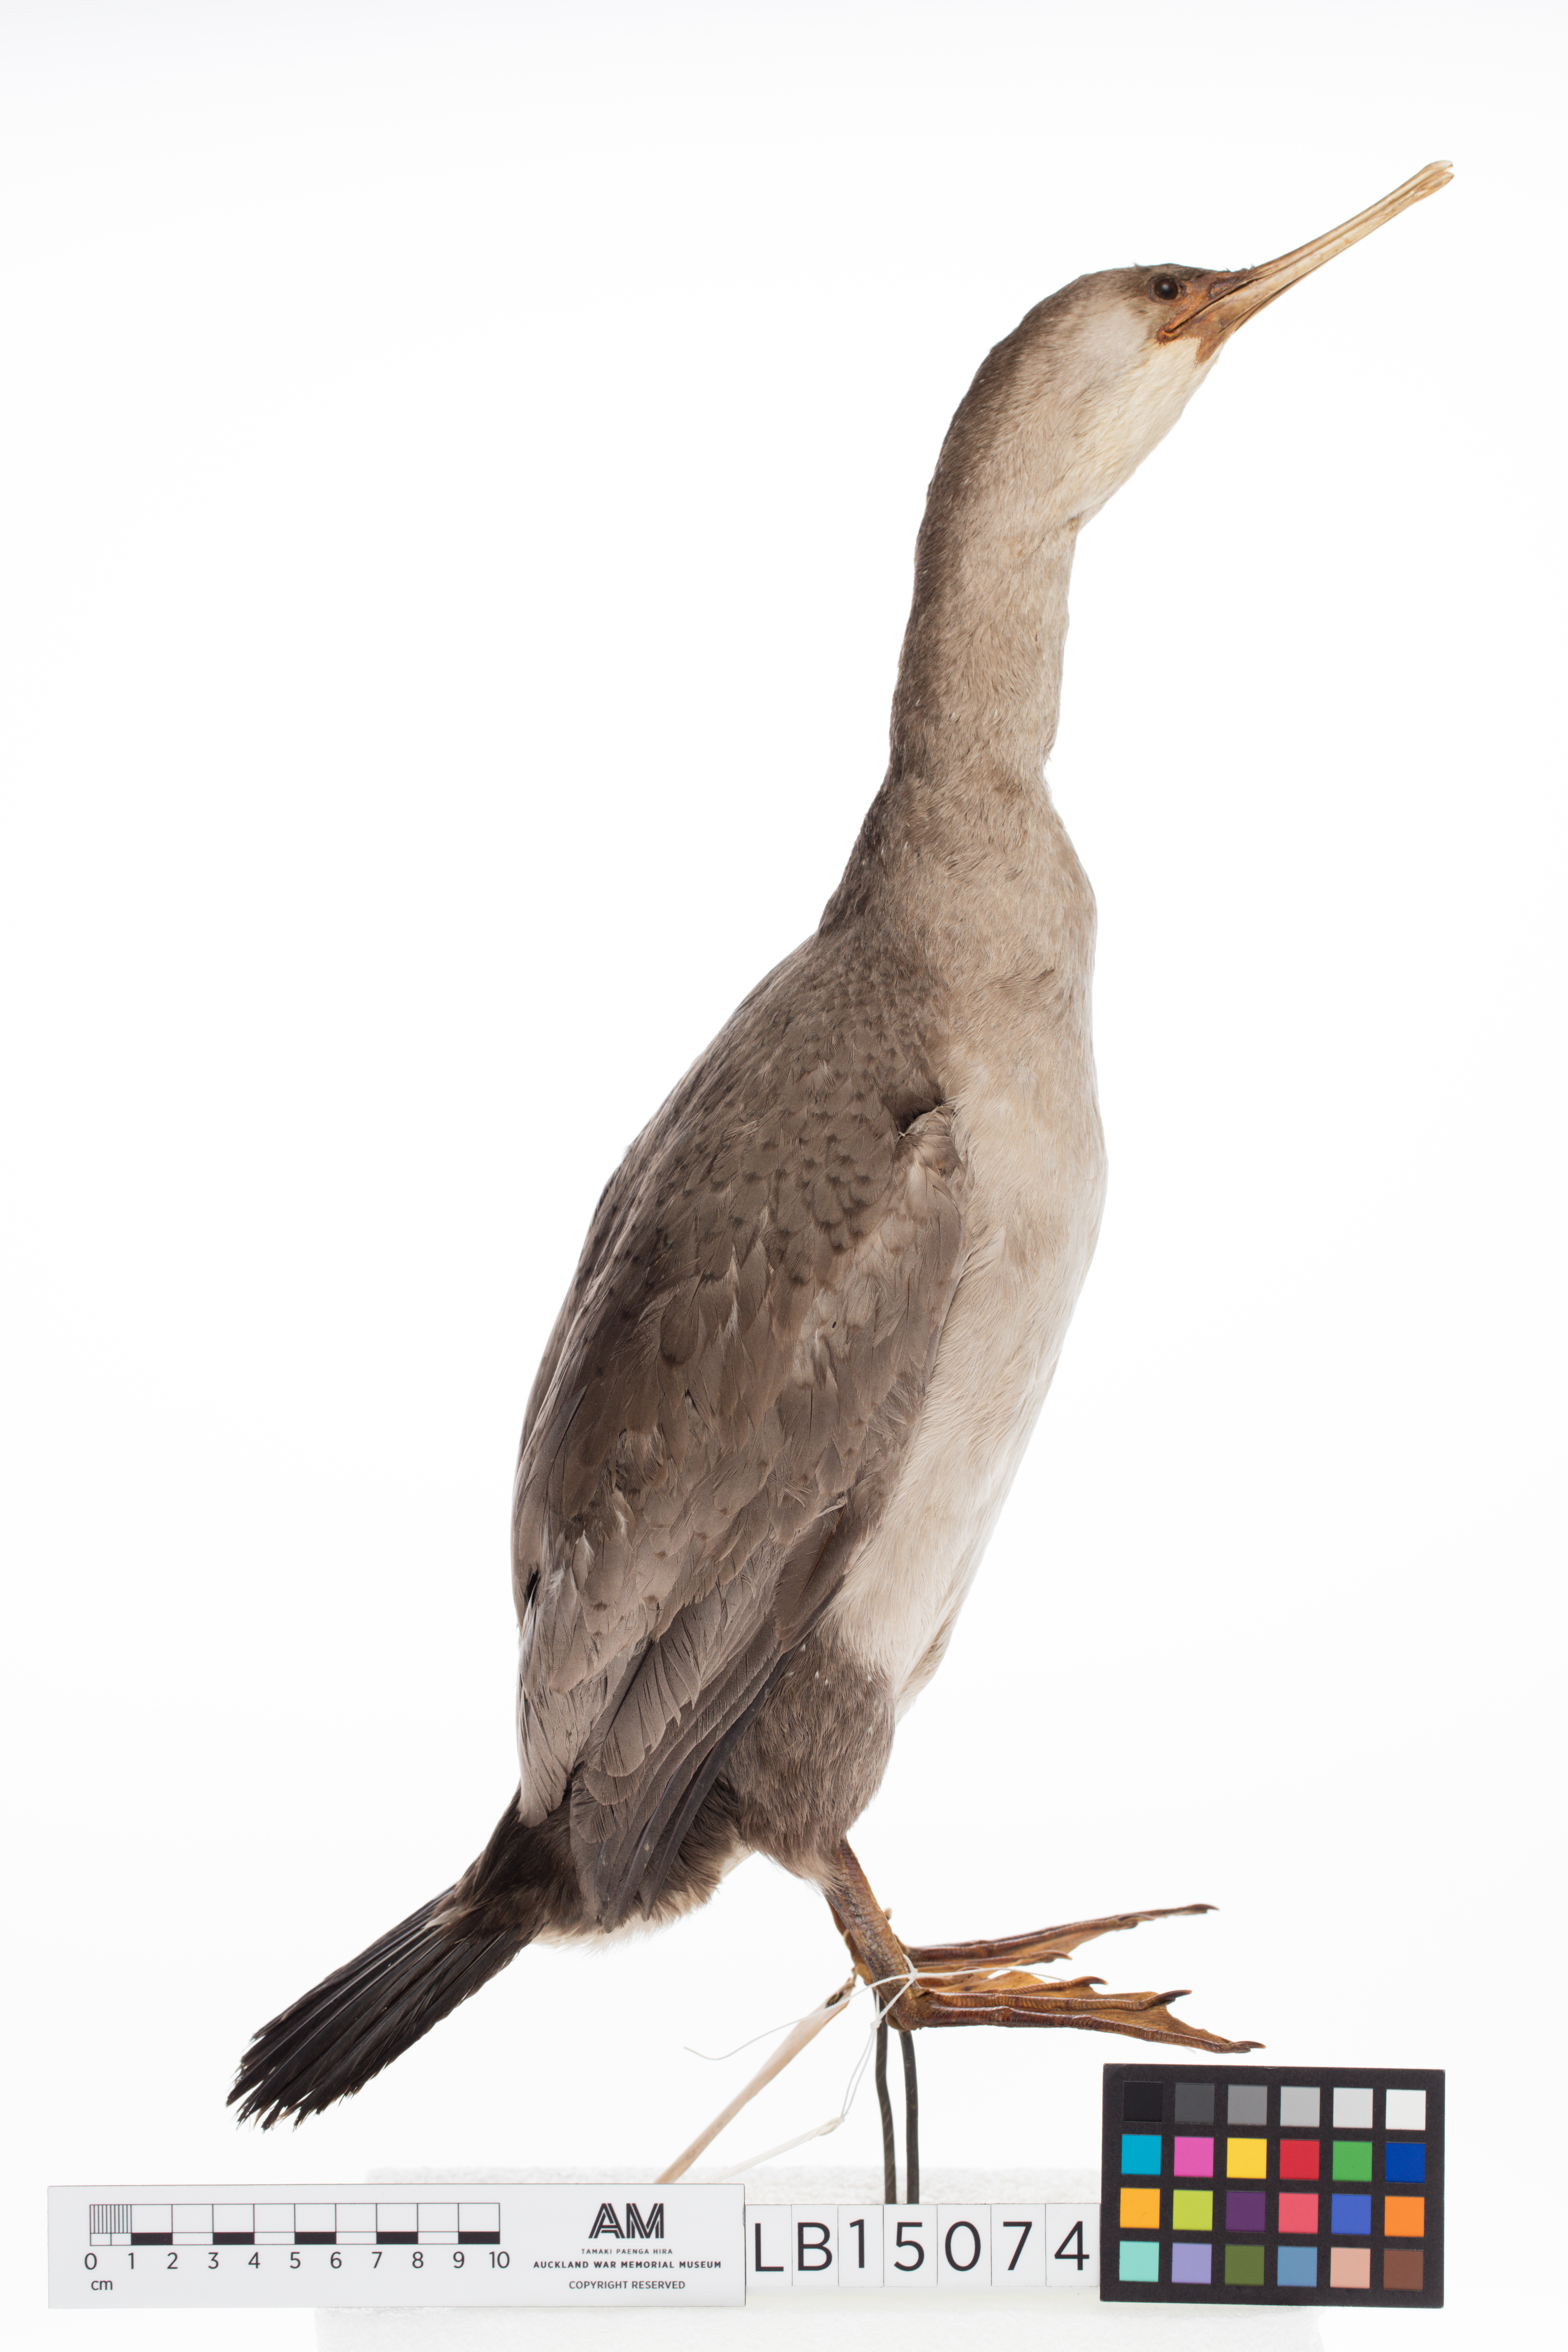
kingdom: Animalia
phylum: Chordata
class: Aves
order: Suliformes
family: Phalacrocoracidae
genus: Phalacrocorax
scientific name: Phalacrocorax punctatus
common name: Spotted shag
